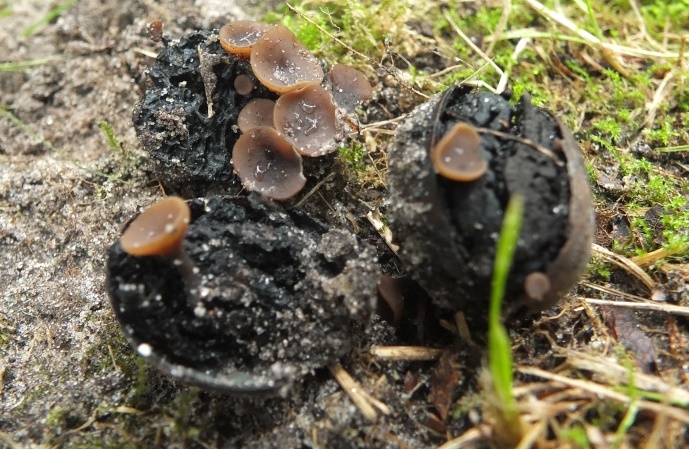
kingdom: Fungi
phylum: Ascomycota
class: Leotiomycetes
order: Helotiales
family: Sclerotiniaceae
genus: Ciboria
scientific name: Ciboria batschiana
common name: agern-knoldskive
